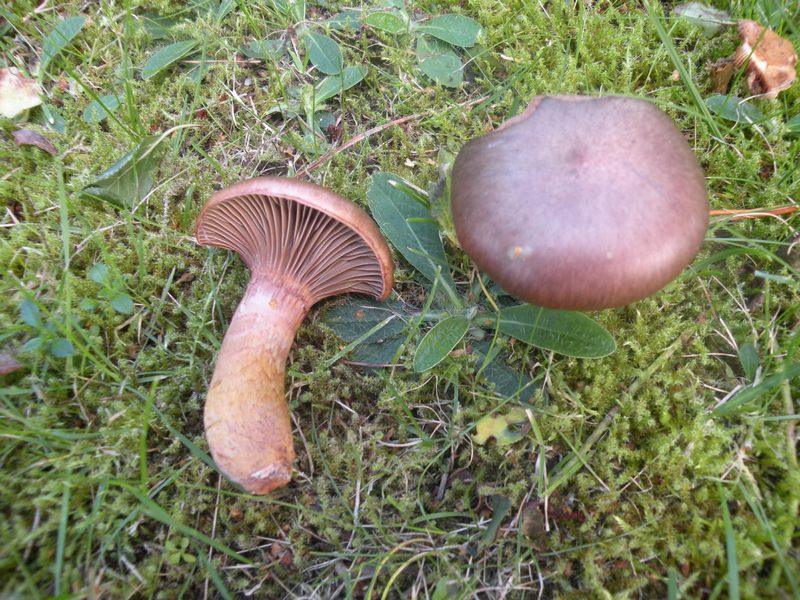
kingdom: Fungi
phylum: Basidiomycota
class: Agaricomycetes
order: Boletales
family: Gomphidiaceae
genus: Chroogomphus
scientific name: Chroogomphus rutilus
